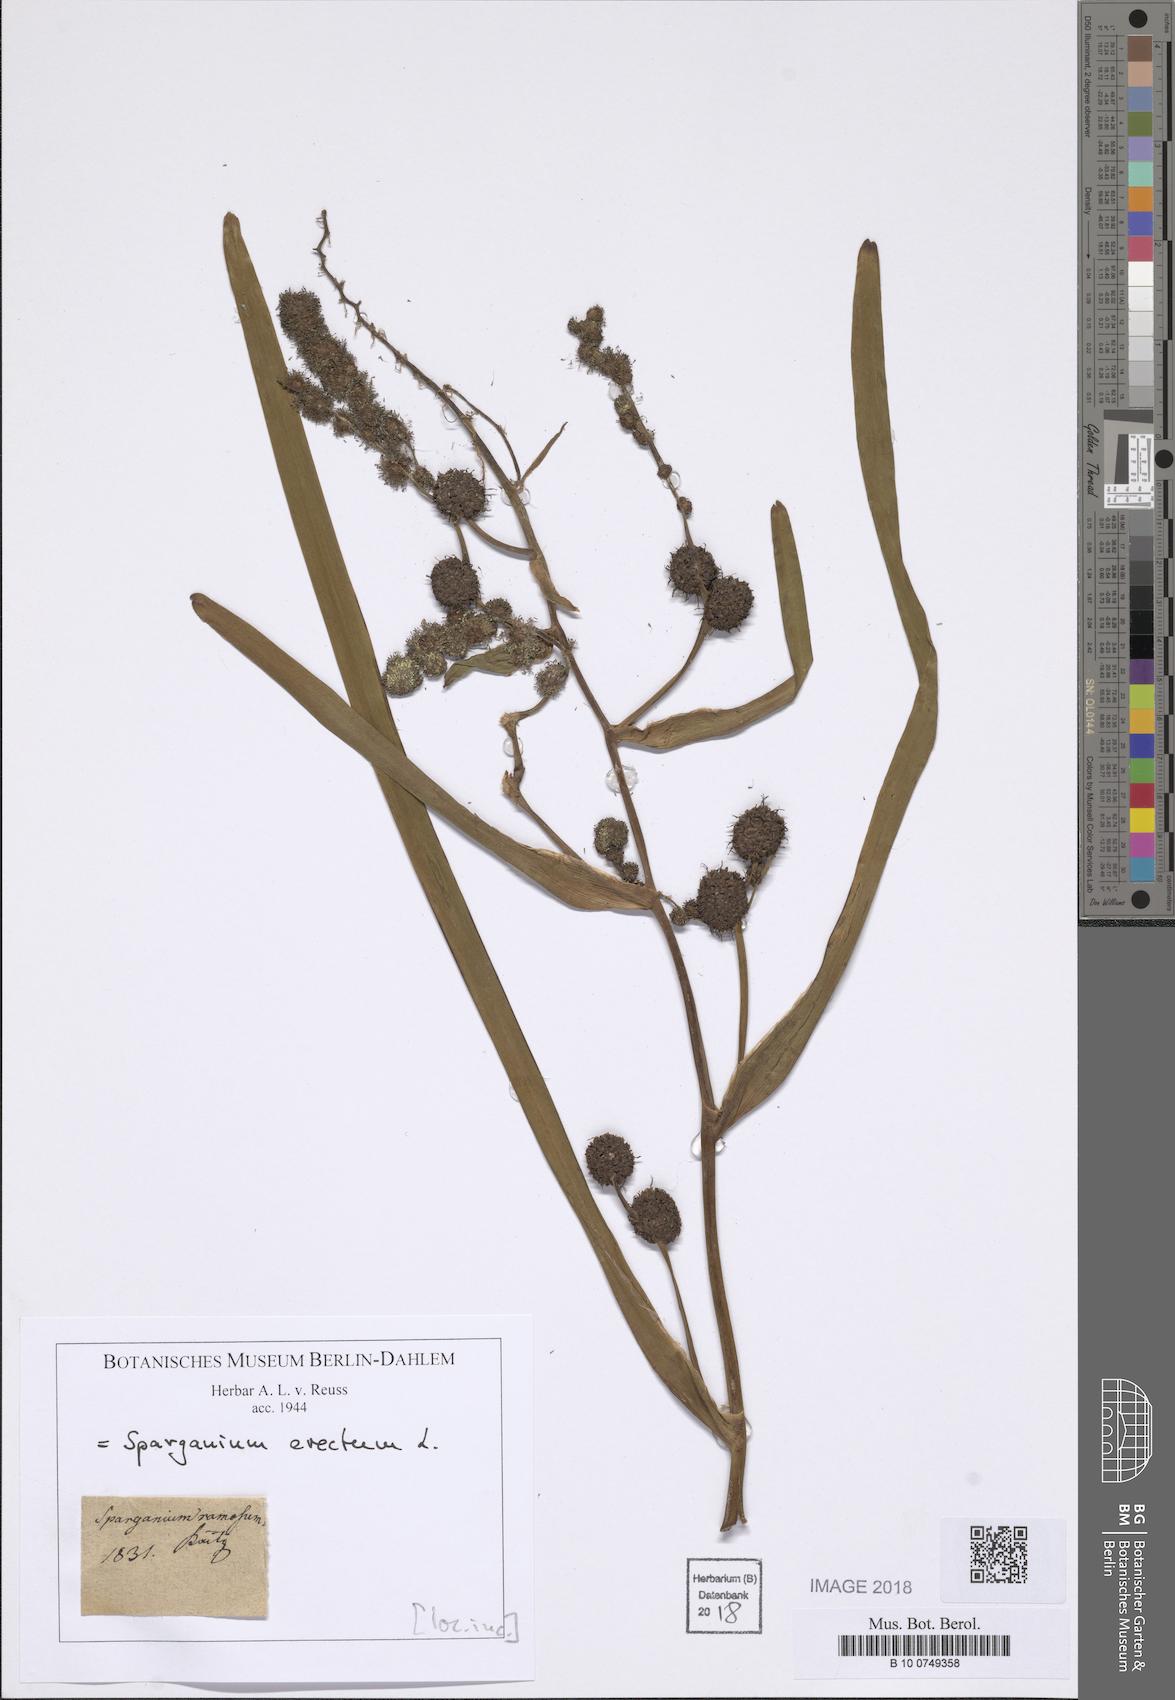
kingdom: Plantae
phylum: Tracheophyta
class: Liliopsida
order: Poales
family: Typhaceae
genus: Sparganium
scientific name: Sparganium erectum
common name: Branched bur-reed
